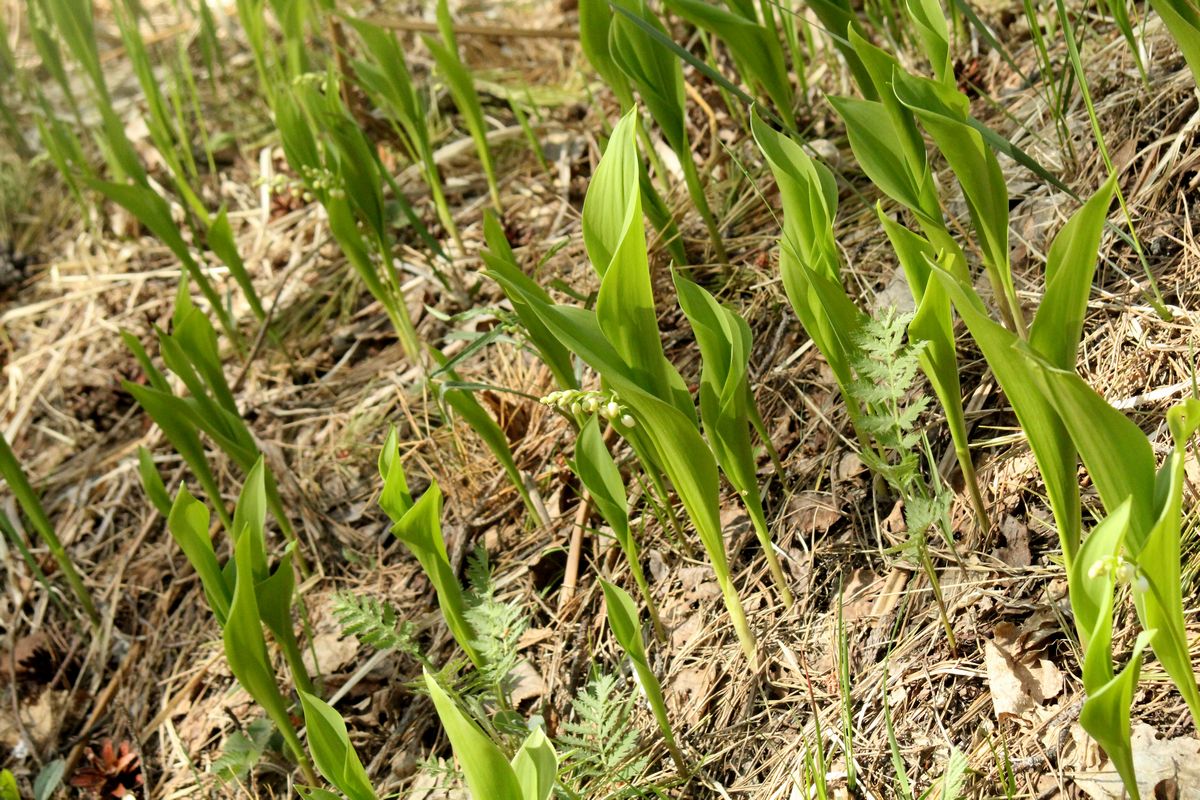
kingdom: Plantae
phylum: Tracheophyta
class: Liliopsida
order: Asparagales
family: Asparagaceae
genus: Convallaria
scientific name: Convallaria majalis
